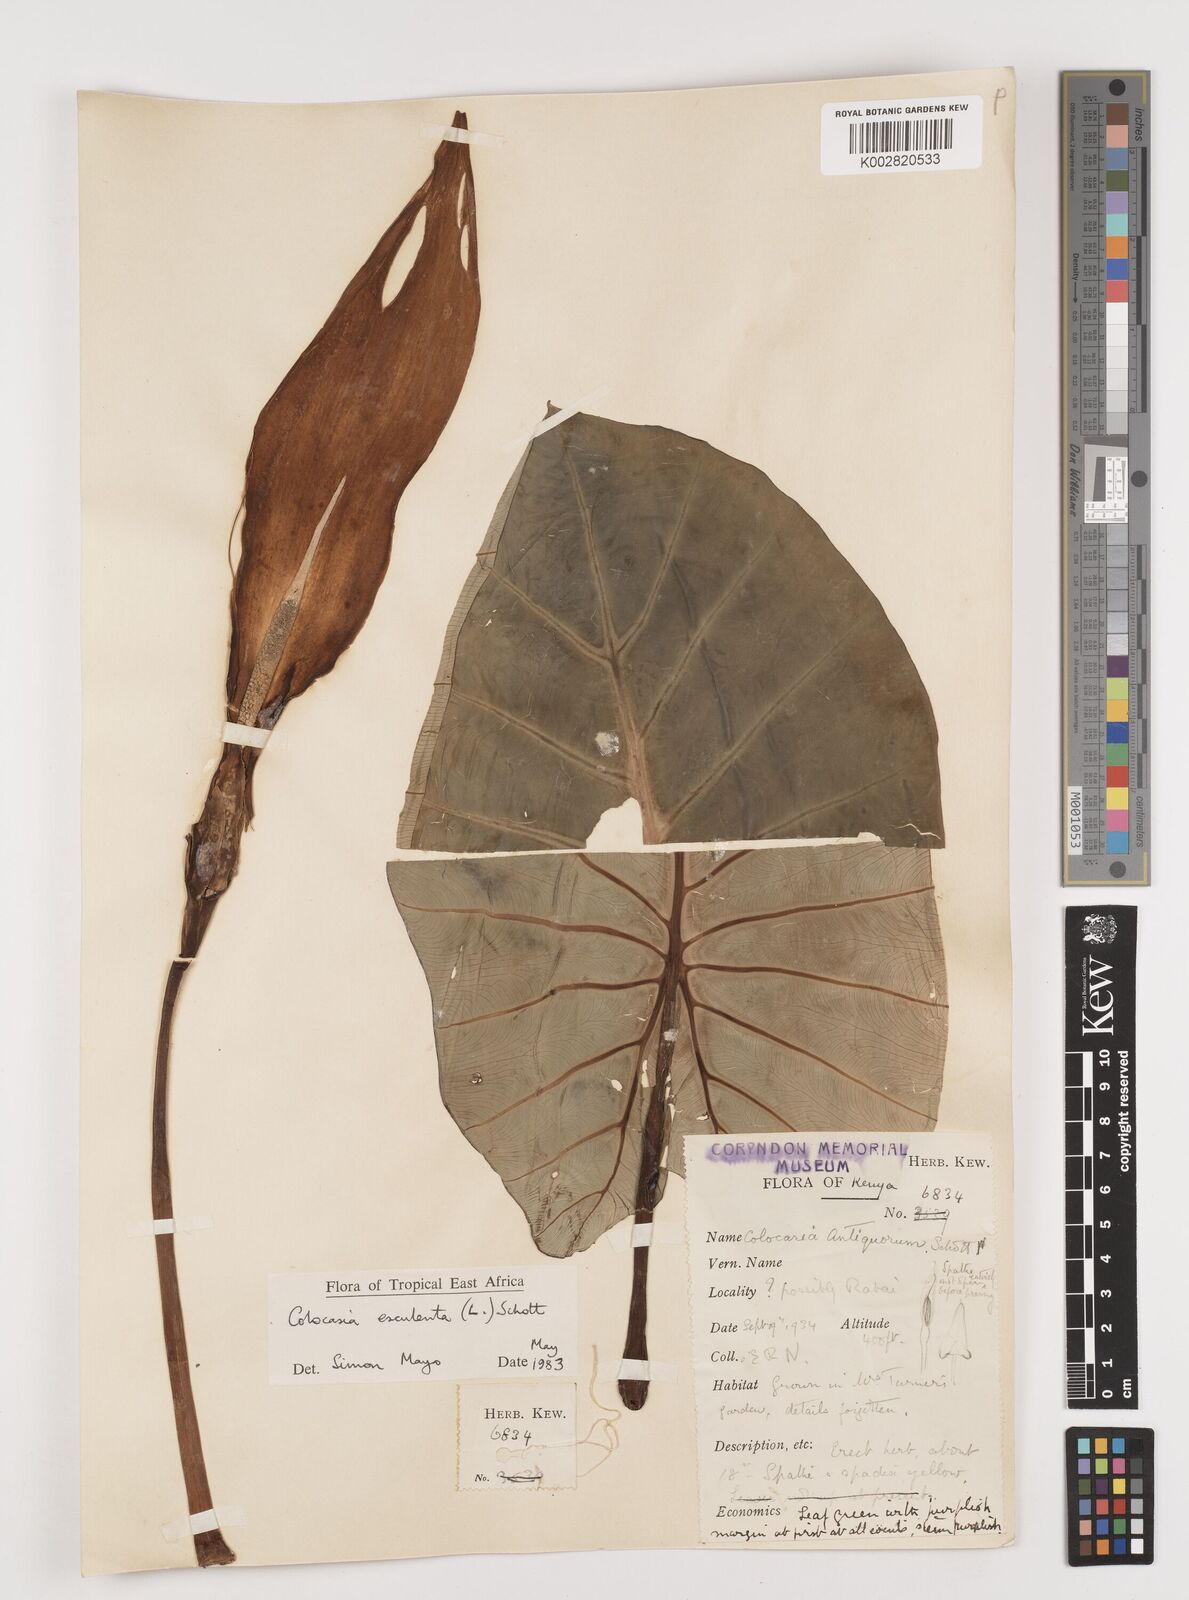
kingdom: Plantae
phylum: Tracheophyta
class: Liliopsida
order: Alismatales
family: Araceae
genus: Colocasia
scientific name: Colocasia esculenta
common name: Taro
